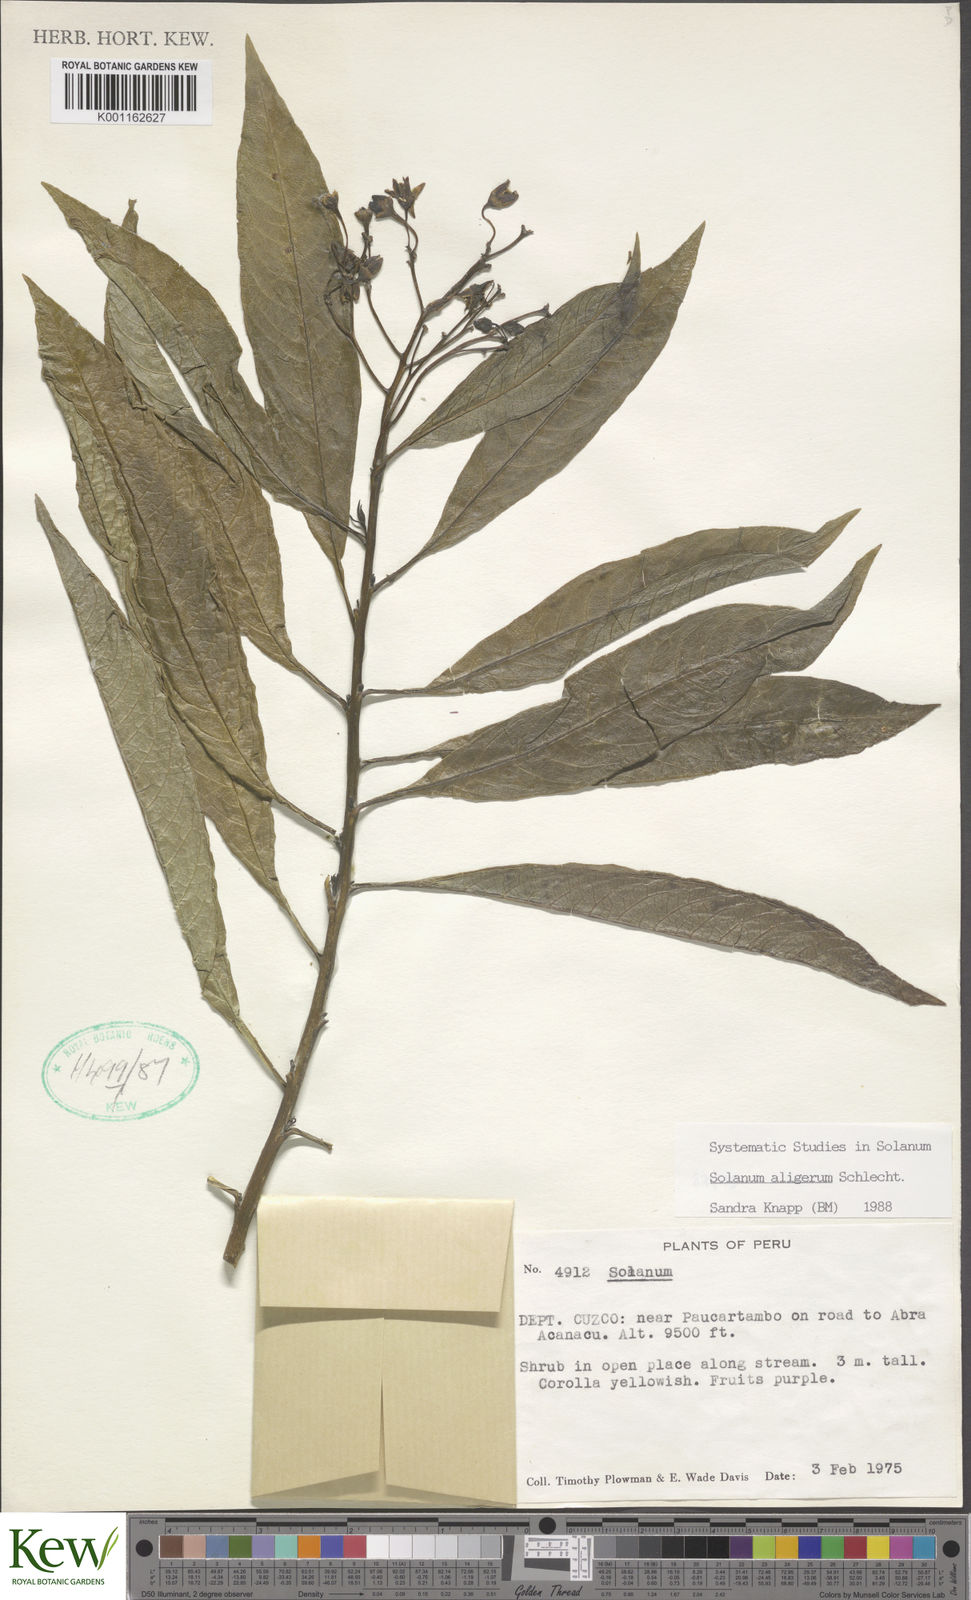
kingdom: Plantae
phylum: Tracheophyta
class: Magnoliopsida
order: Solanales
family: Solanaceae
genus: Solanum
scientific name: Solanum aligerum
